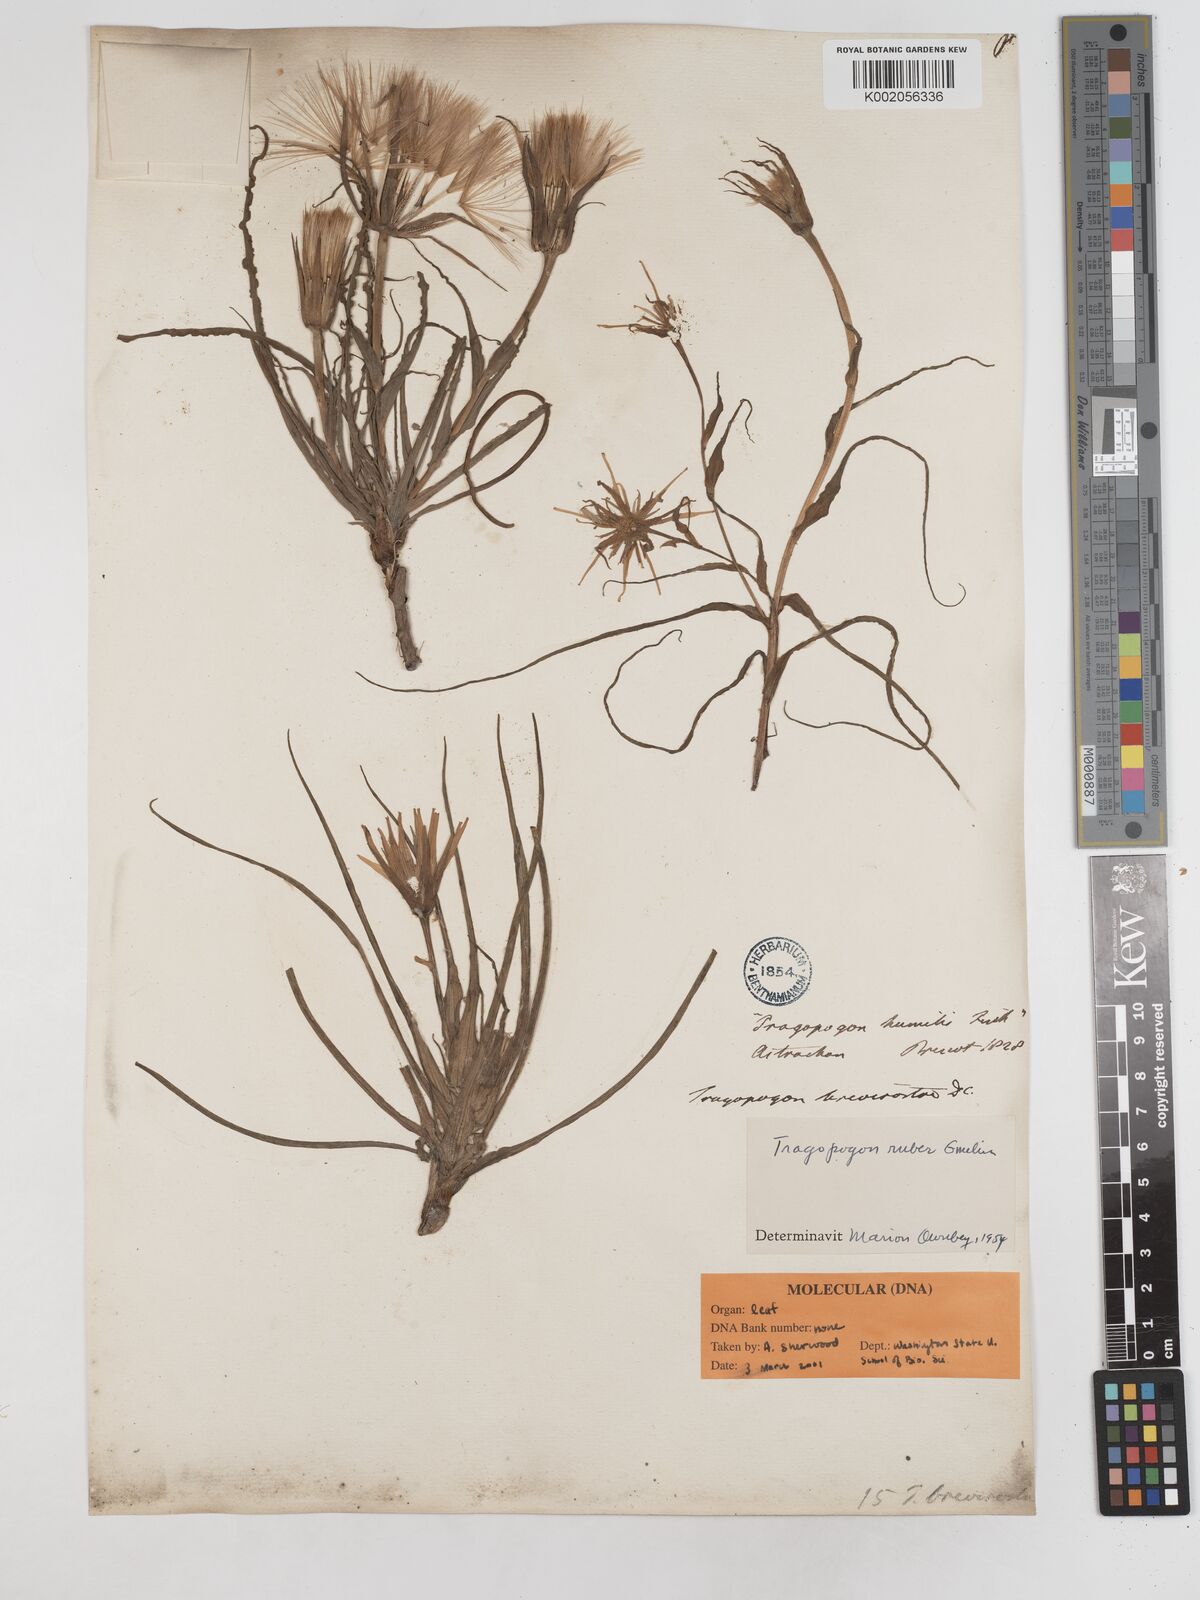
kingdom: Plantae
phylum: Tracheophyta
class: Magnoliopsida
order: Asterales
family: Asteraceae
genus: Tragopogon
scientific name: Tragopogon collinus
